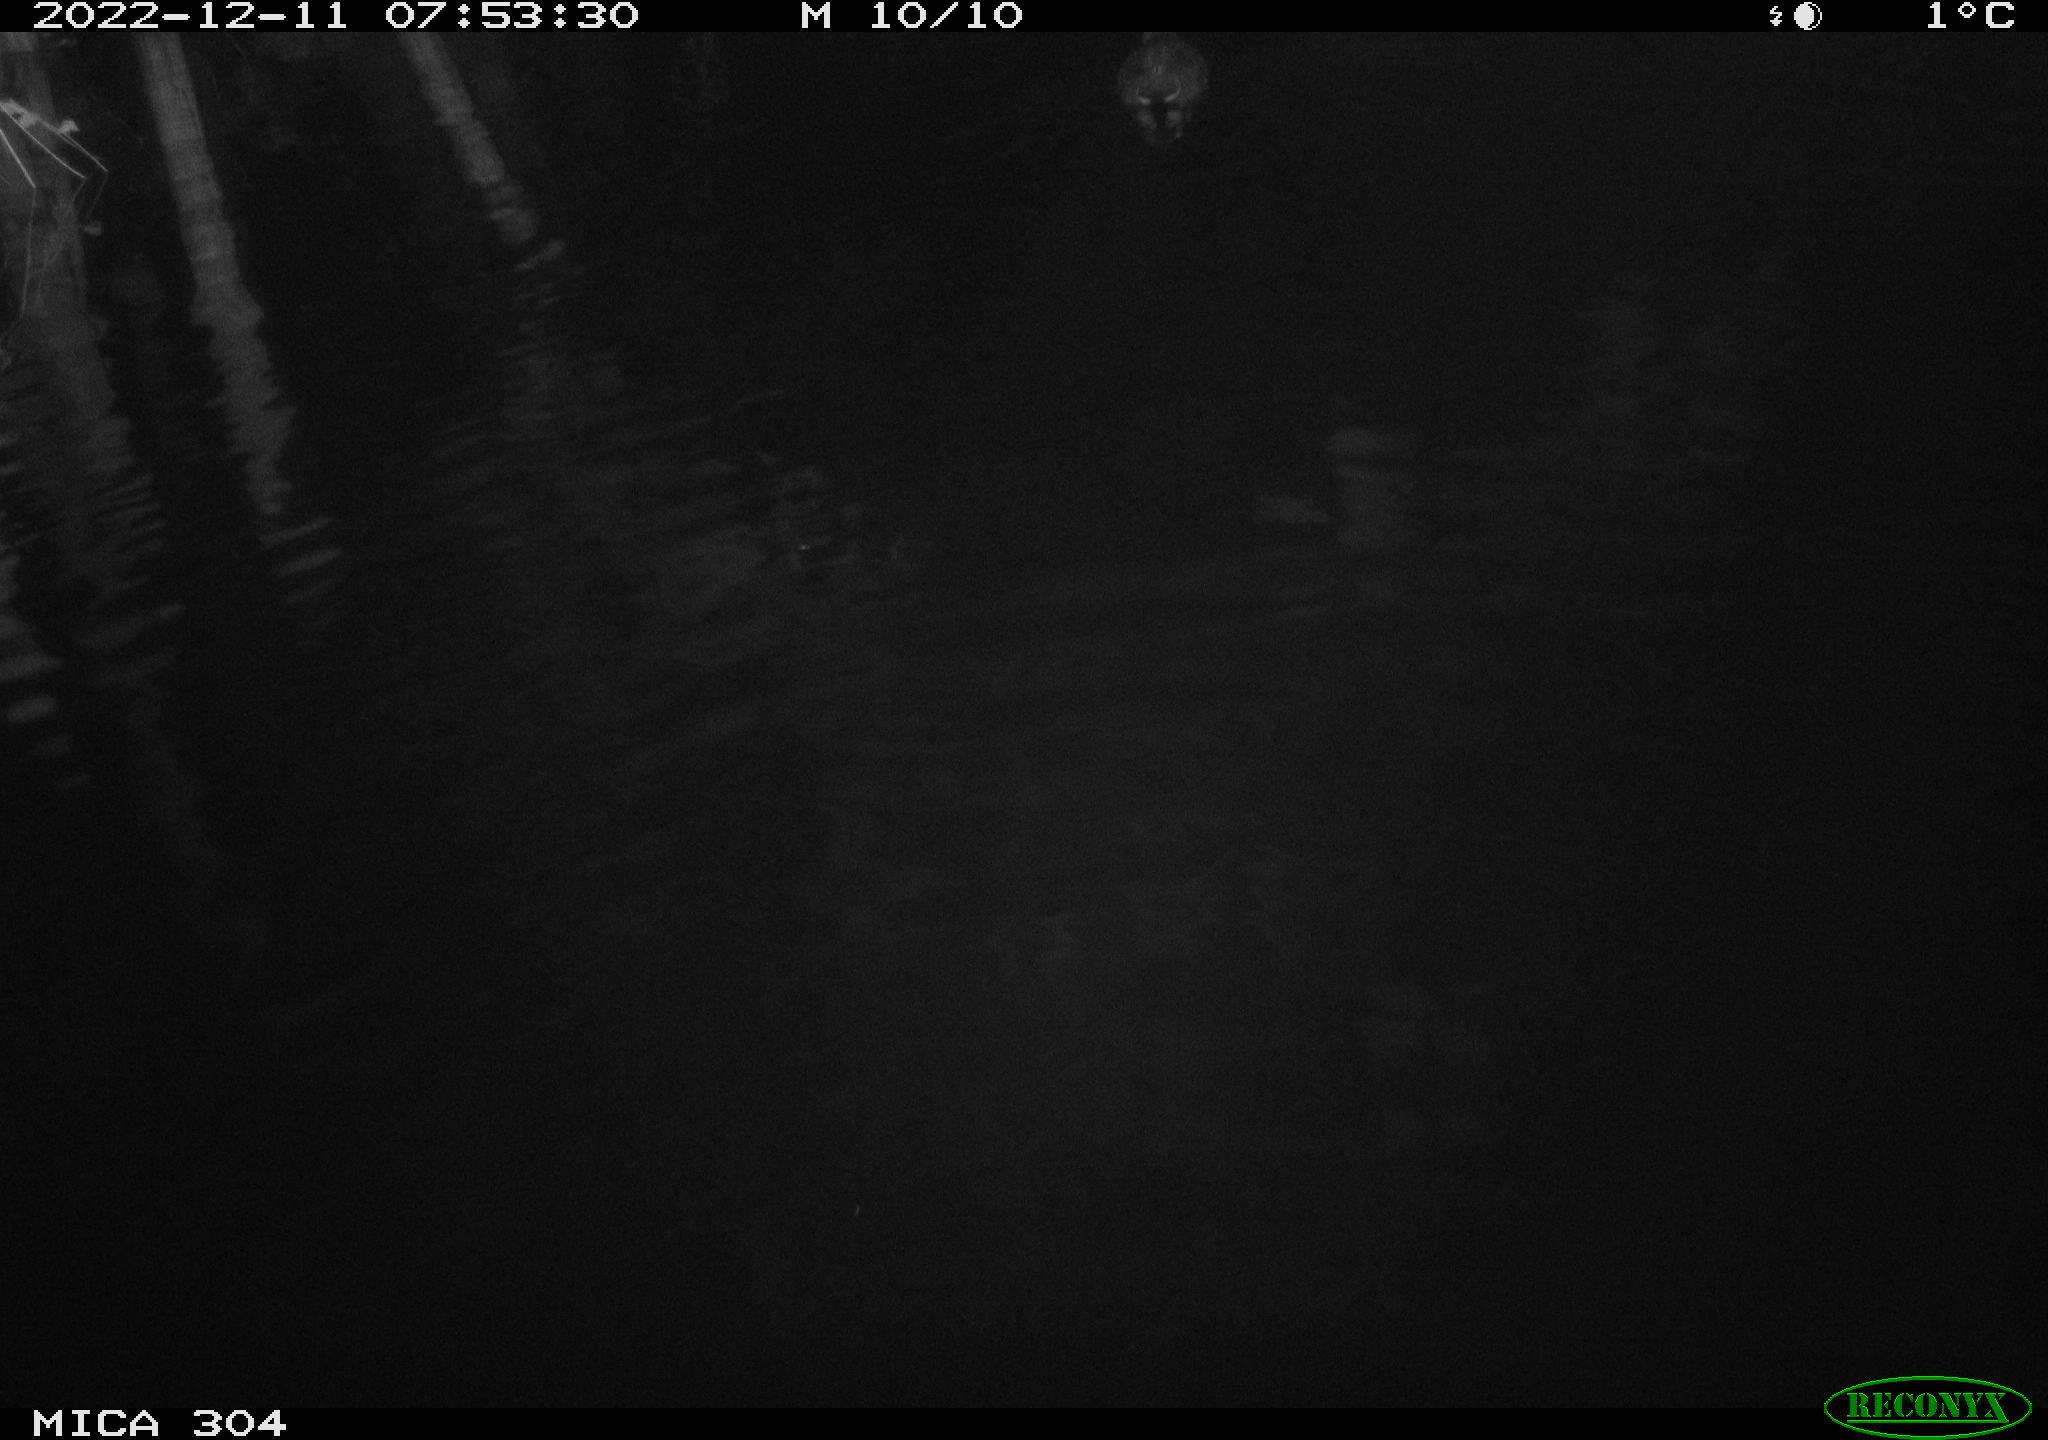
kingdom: Animalia
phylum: Chordata
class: Aves
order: Gruiformes
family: Rallidae
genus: Gallinula
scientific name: Gallinula chloropus
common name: Common moorhen
